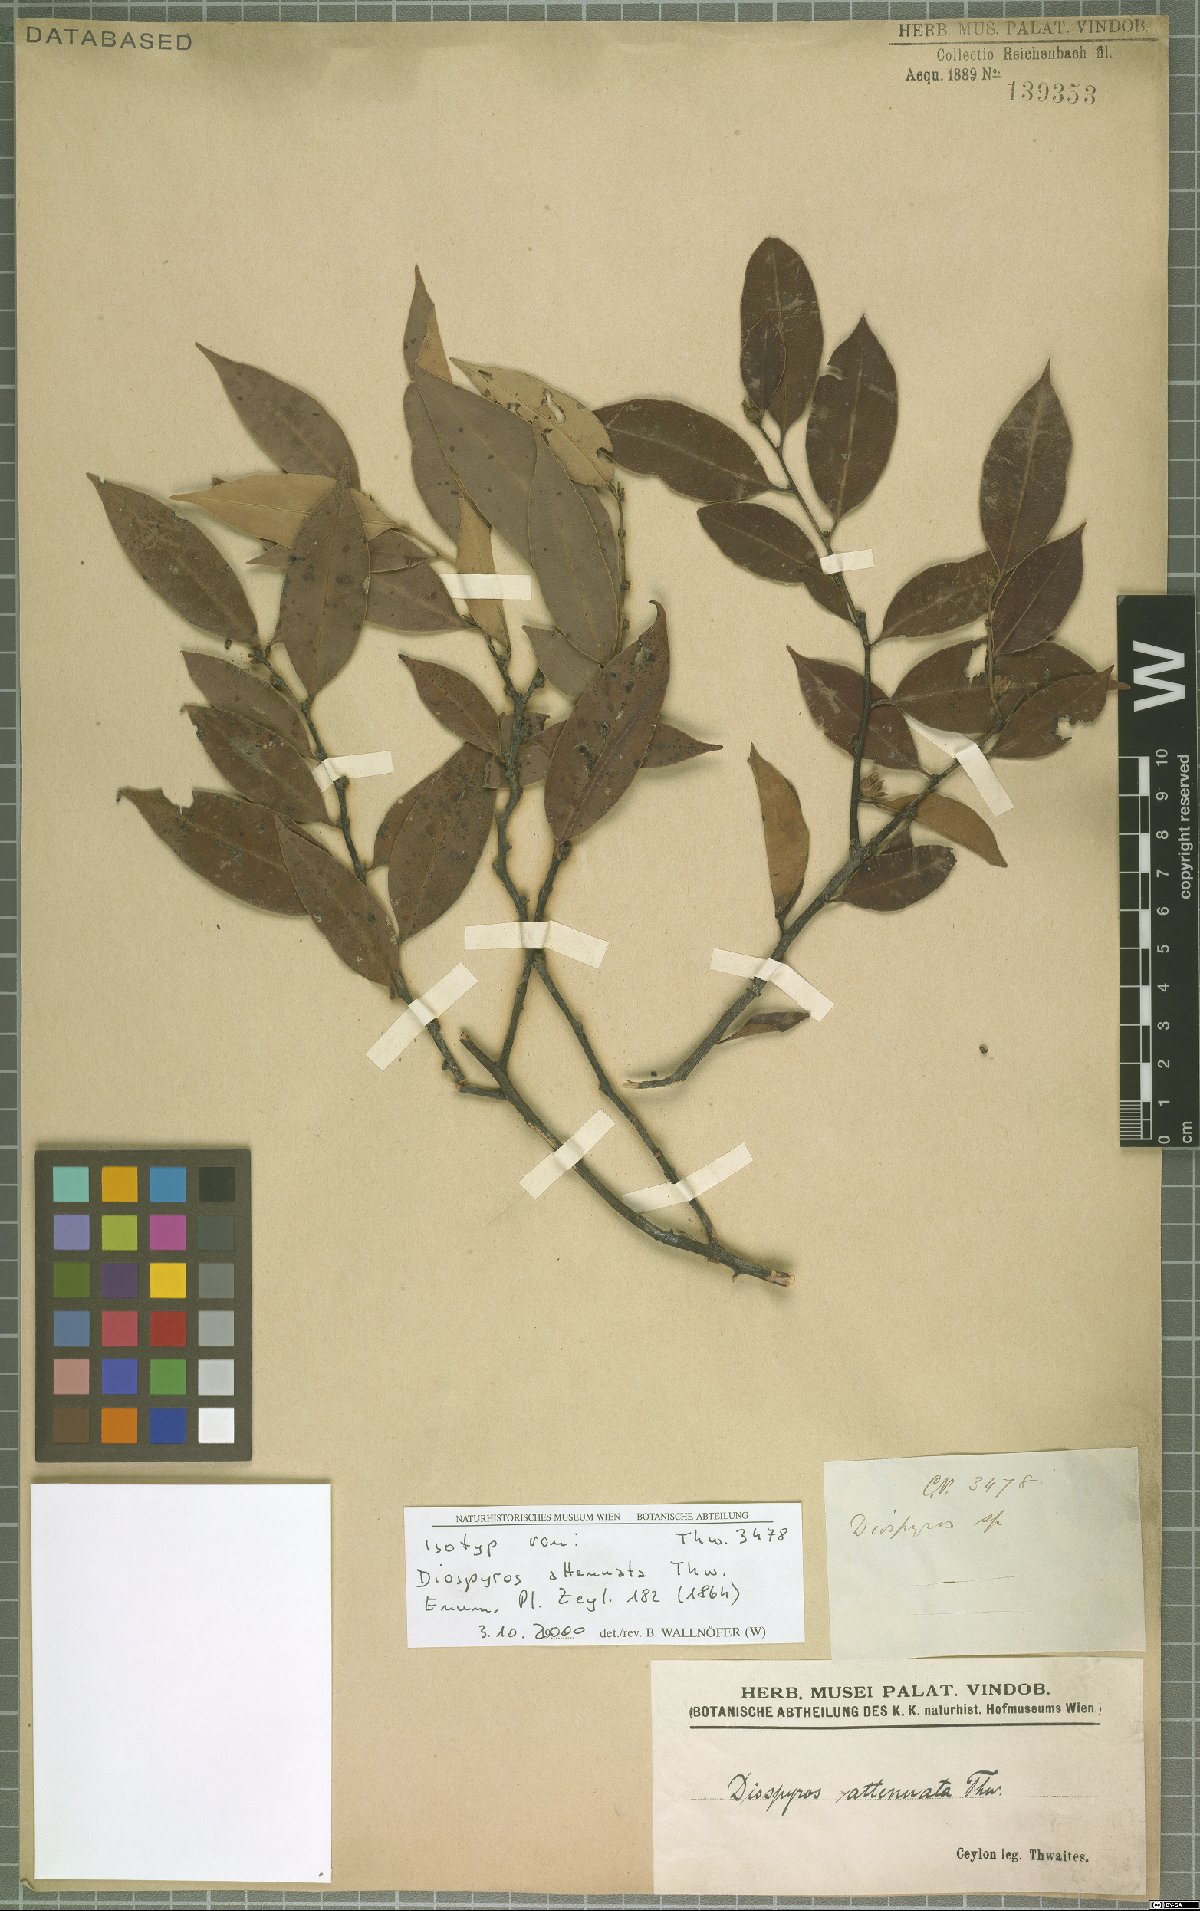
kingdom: Plantae
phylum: Tracheophyta
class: Magnoliopsida
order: Ericales
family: Ebenaceae
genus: Diospyros
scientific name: Diospyros attenuata
